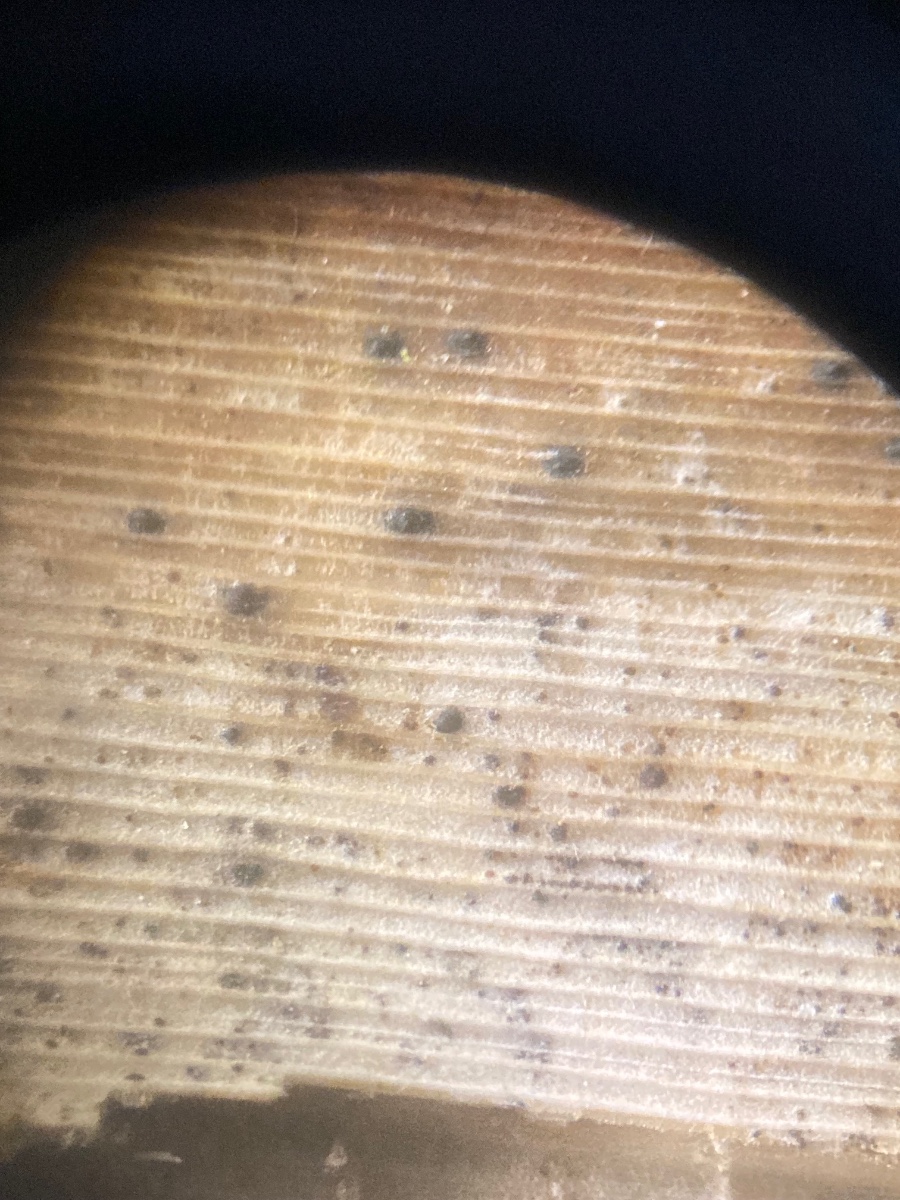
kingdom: Fungi
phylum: Ascomycota
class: Dothideomycetes
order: Pleosporales
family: Diademaceae
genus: Comoclathris
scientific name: Comoclathris typhicola
